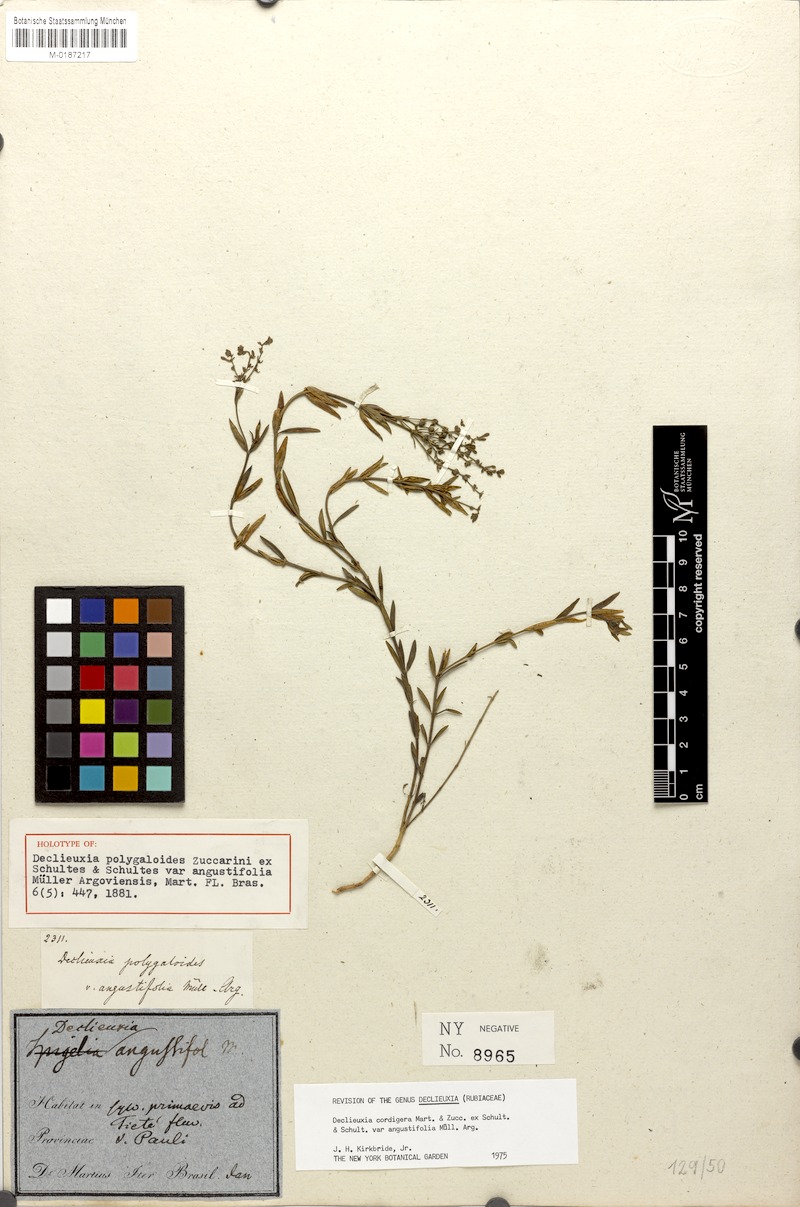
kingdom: Plantae
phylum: Tracheophyta
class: Magnoliopsida
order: Gentianales
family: Rubiaceae
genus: Declieuxia
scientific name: Declieuxia cordigera
